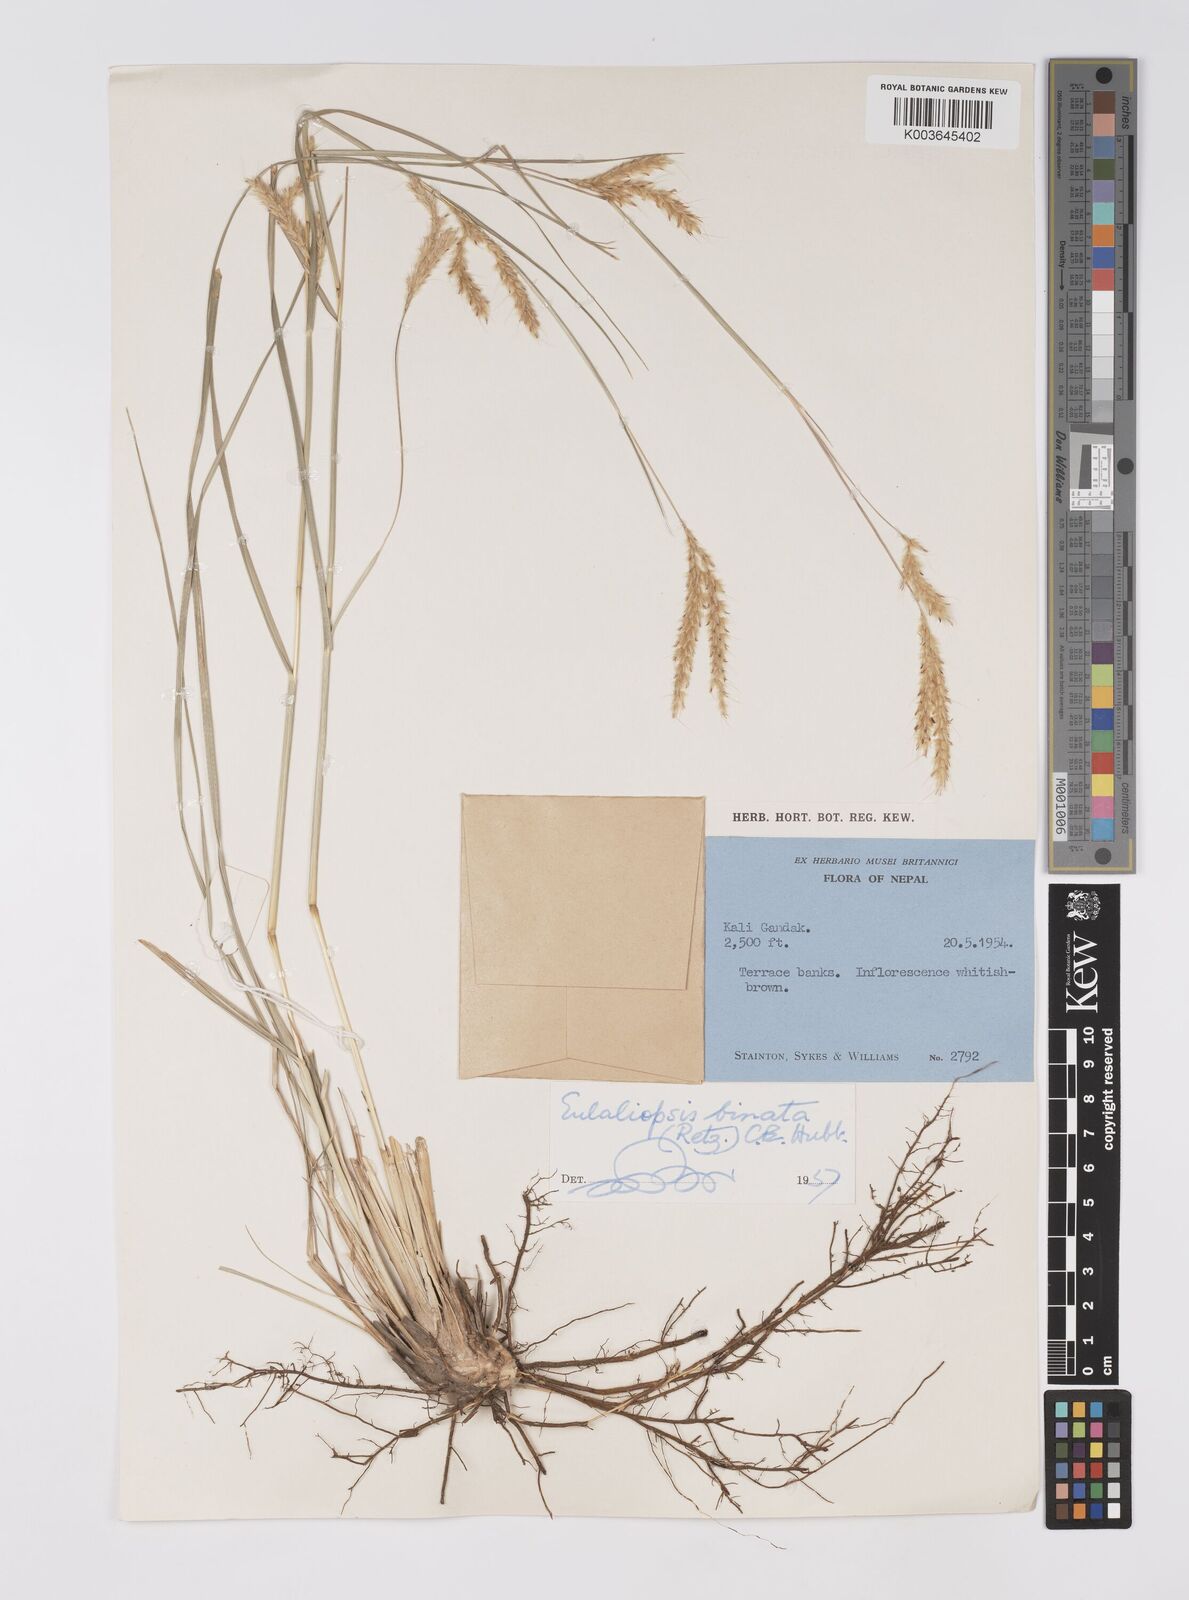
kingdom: Plantae
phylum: Tracheophyta
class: Liliopsida
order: Poales
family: Poaceae
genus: Eulaliopsis
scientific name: Eulaliopsis binata
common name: Baib grass
